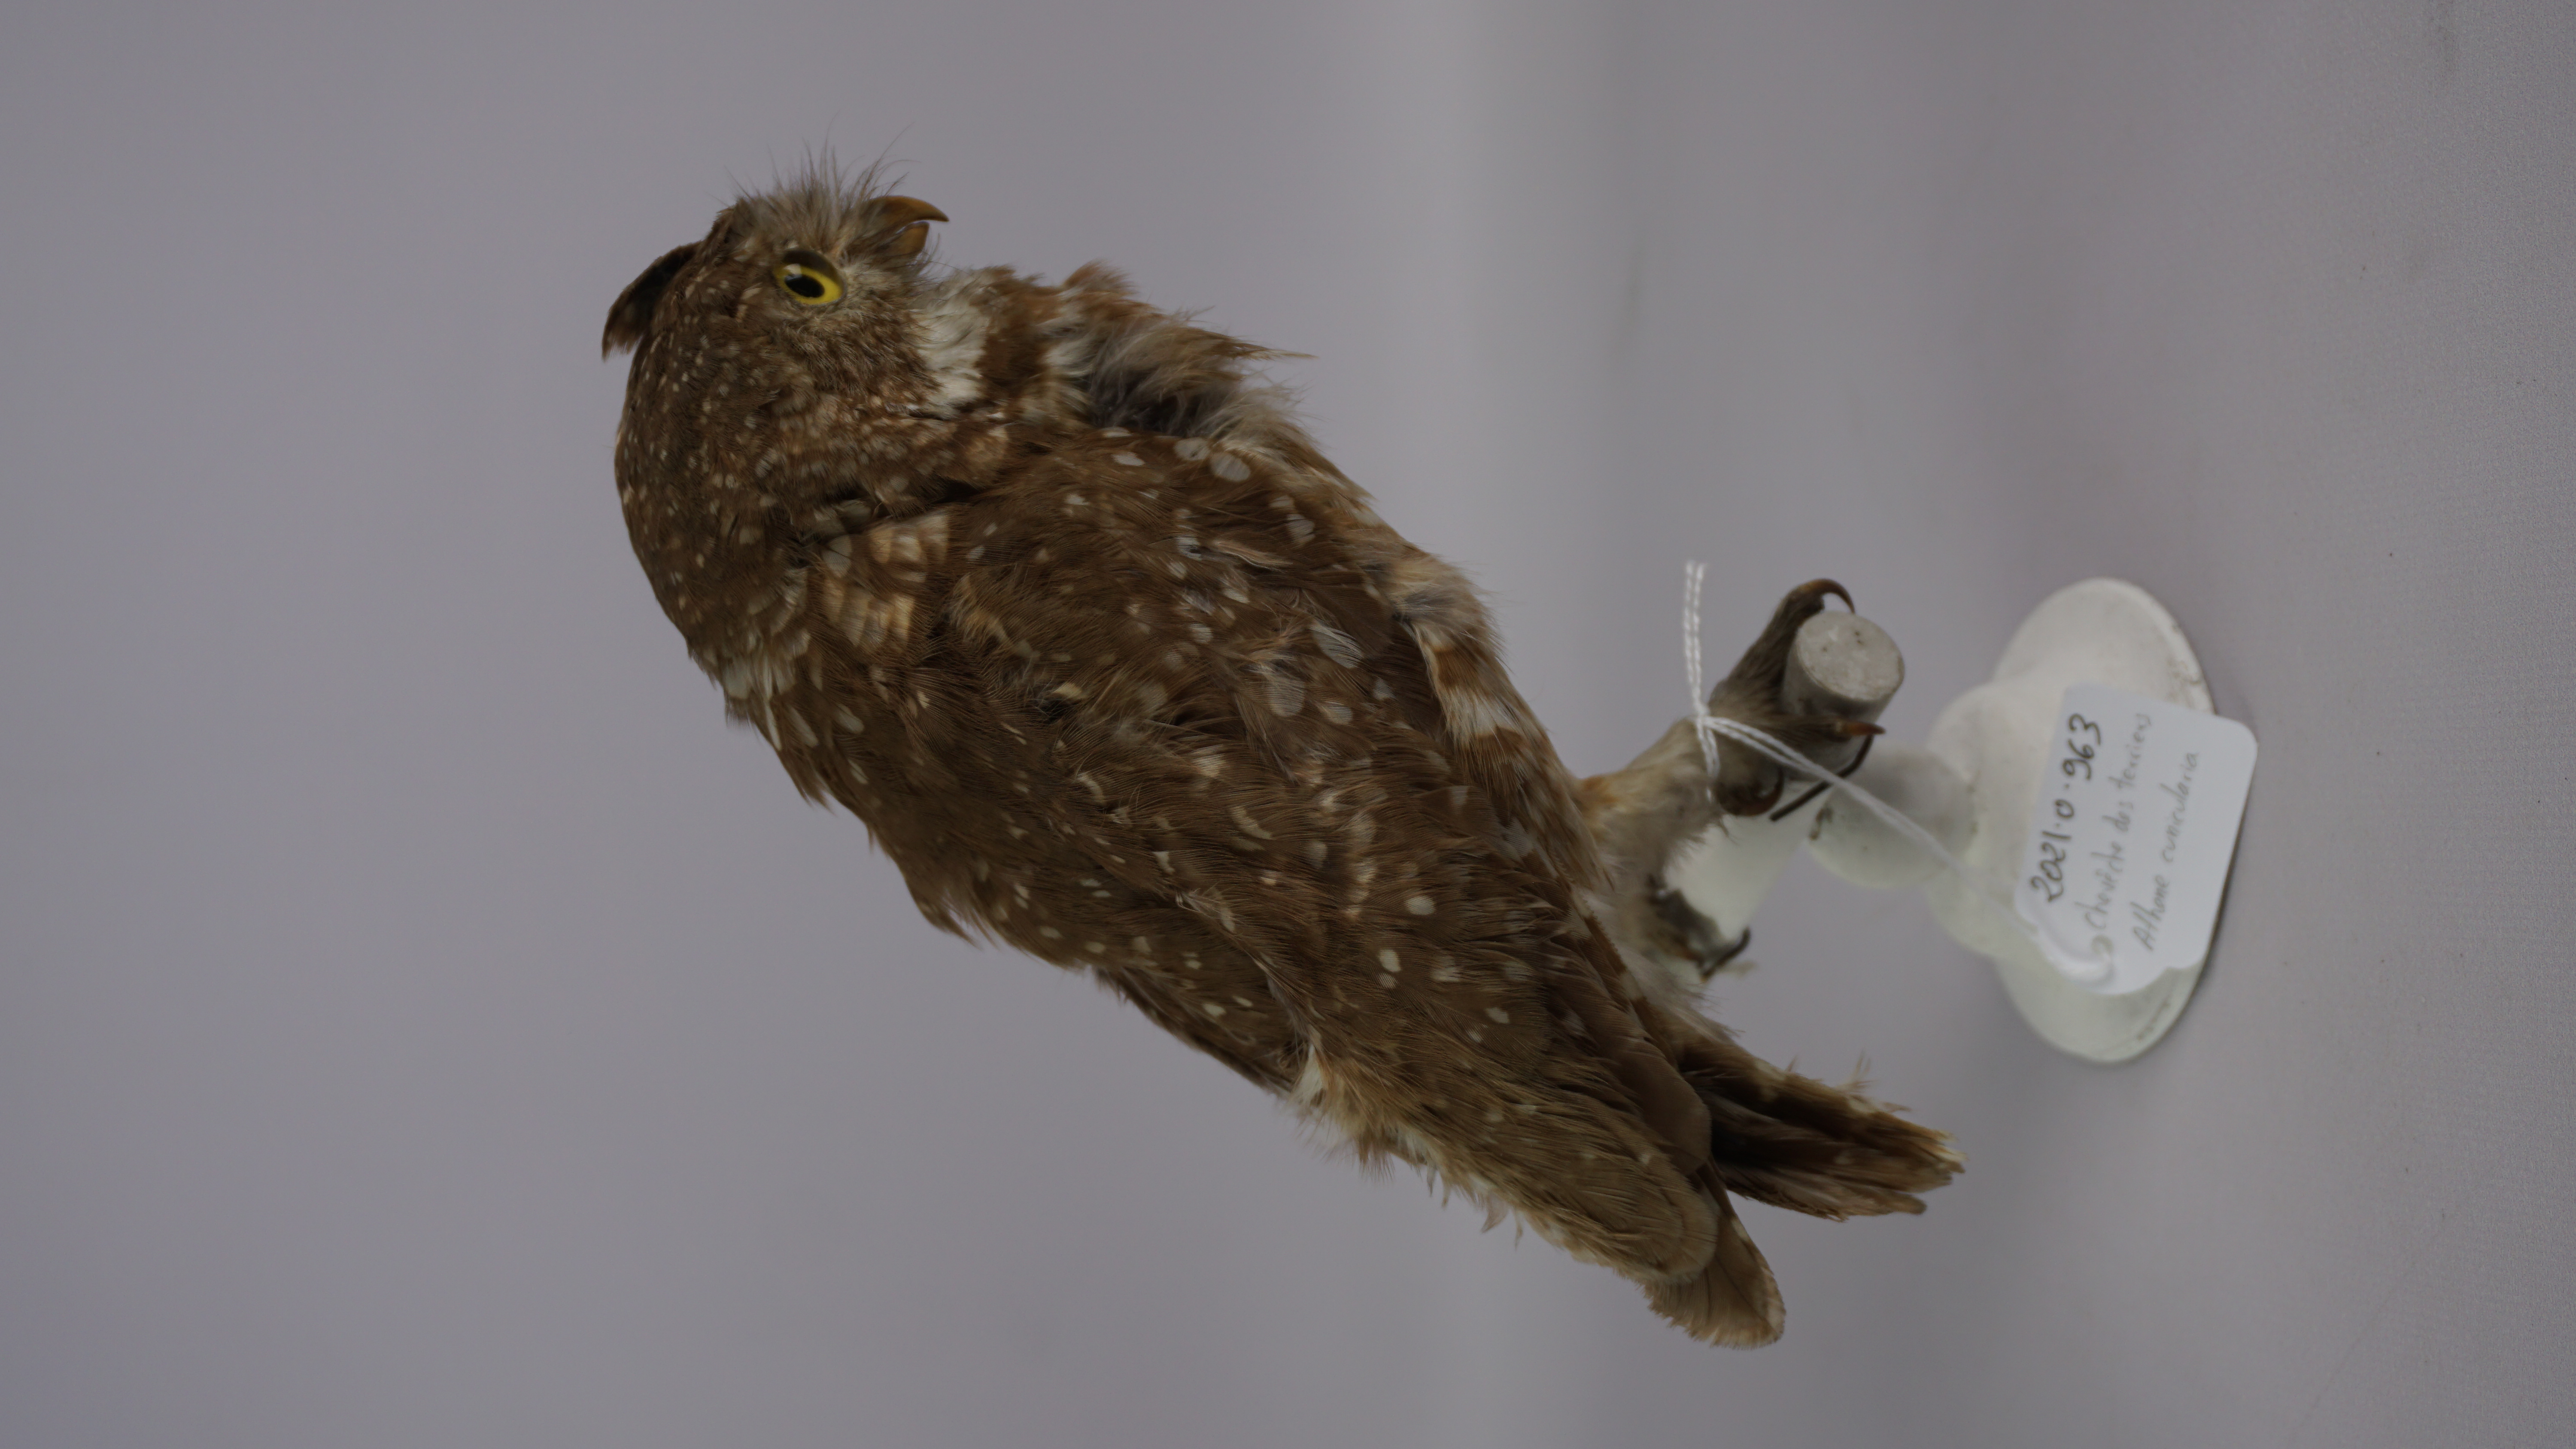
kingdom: Animalia
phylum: Chordata
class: Aves
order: Strigiformes
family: Strigidae
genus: Athene
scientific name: Athene cunicularia
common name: Burrowing owl
